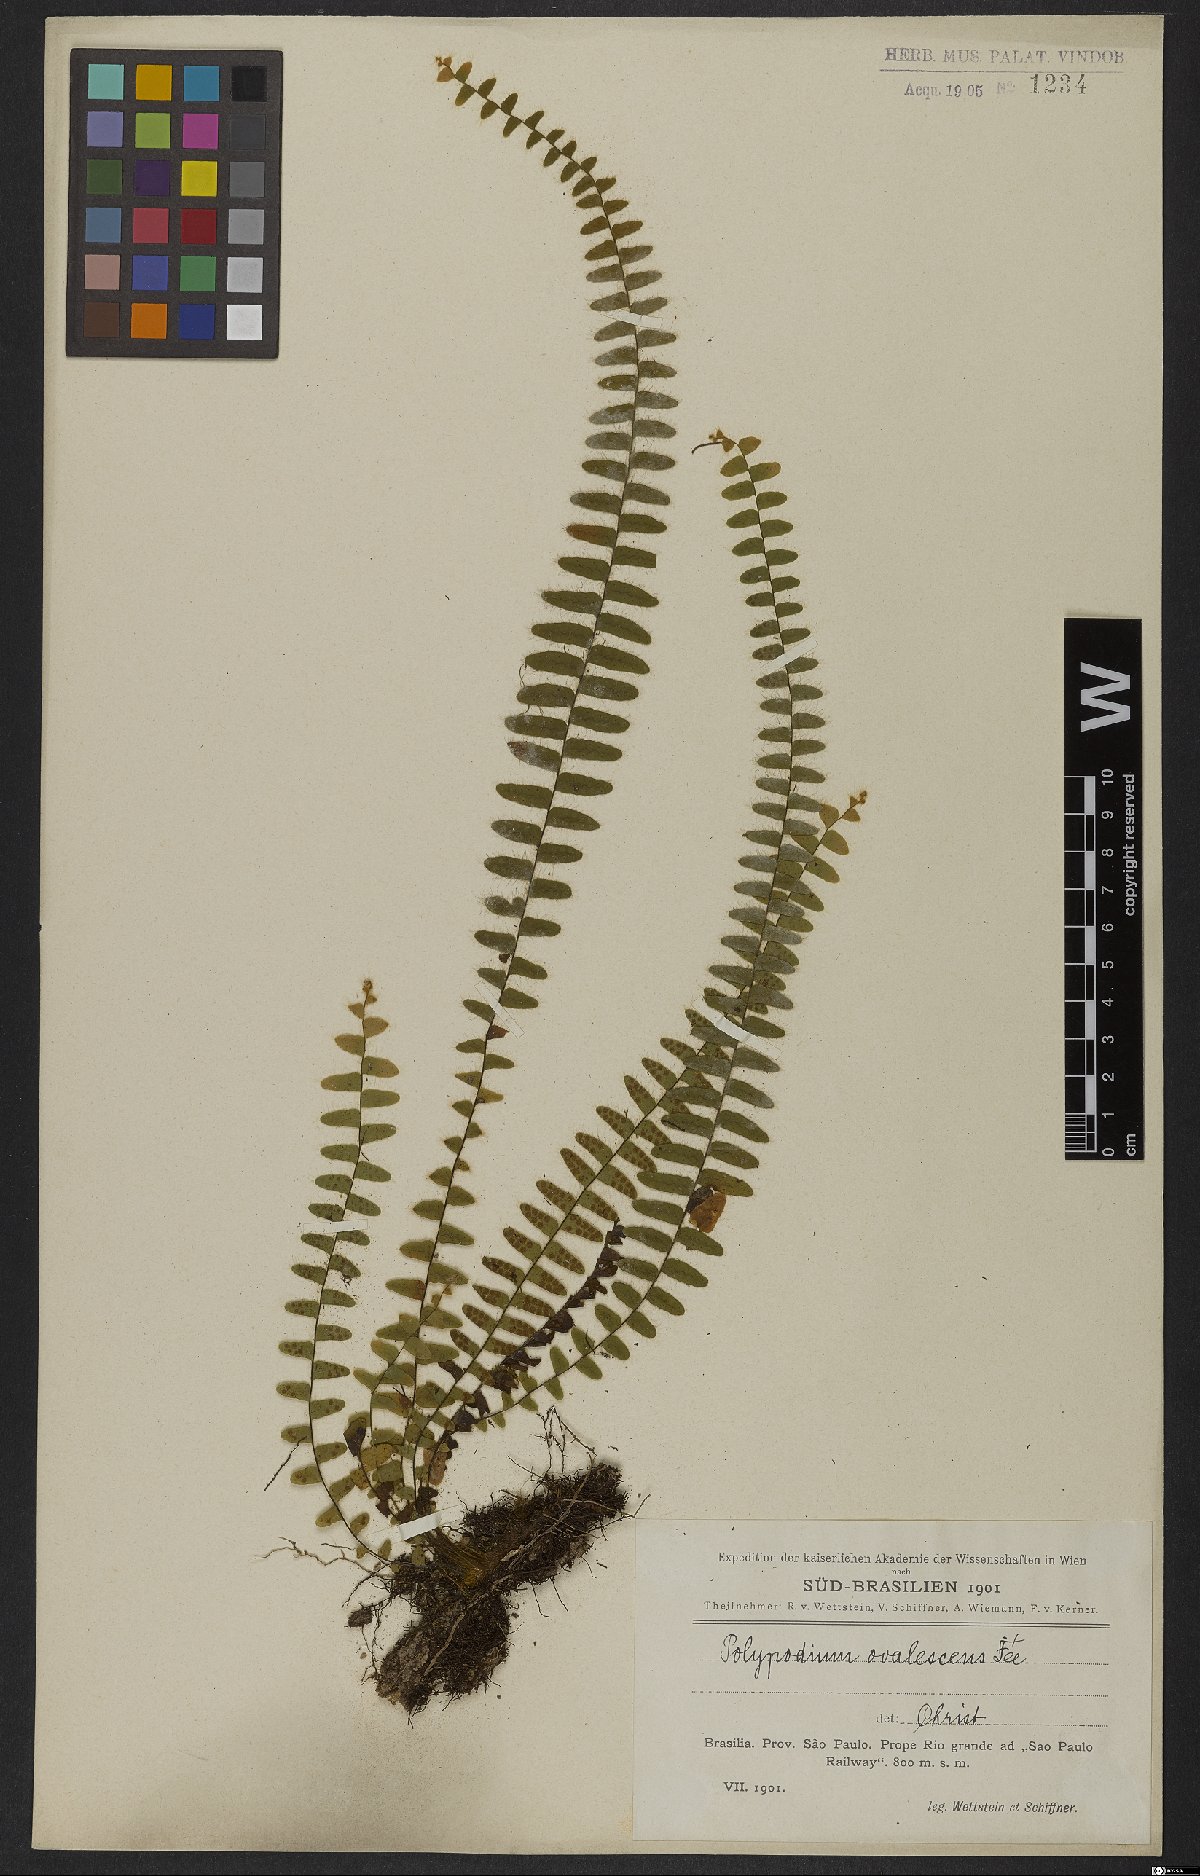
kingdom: Plantae
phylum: Tracheophyta
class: Polypodiopsida
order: Polypodiales
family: Polypodiaceae
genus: Alansmia
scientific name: Alansmia reclinata
